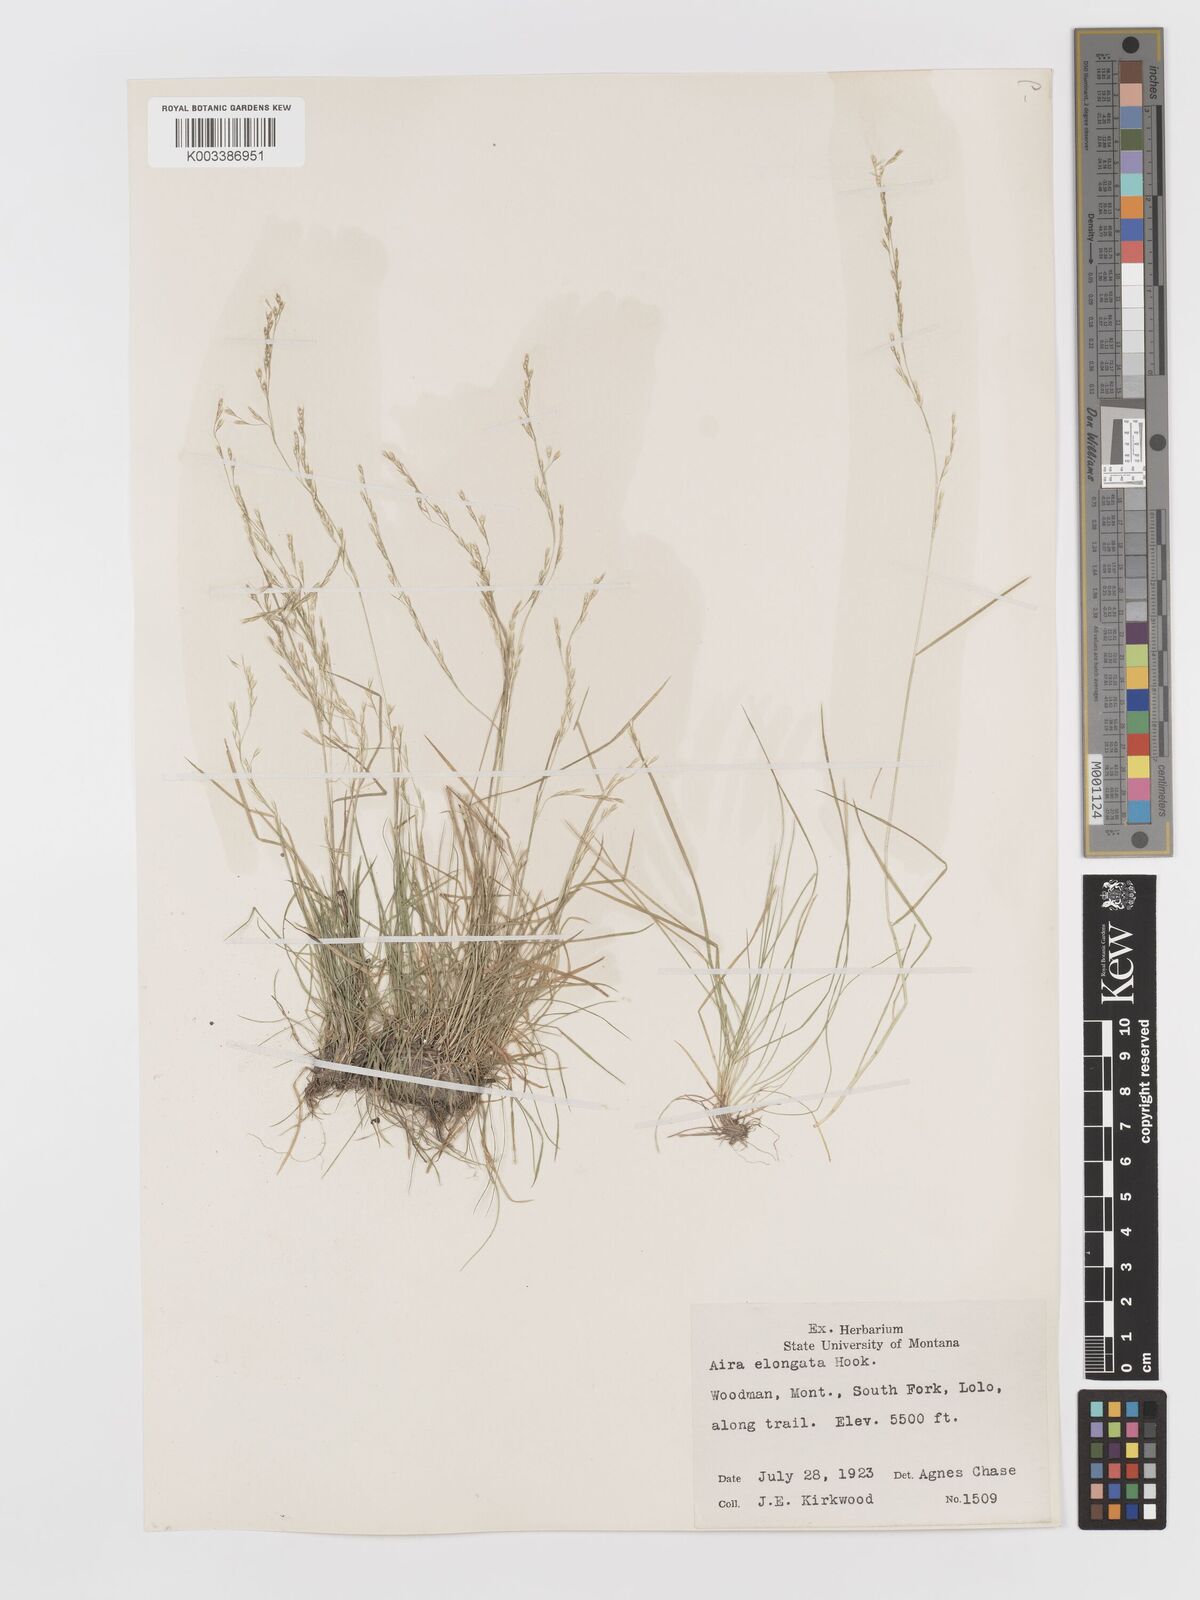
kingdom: Plantae
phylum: Tracheophyta
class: Liliopsida
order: Poales
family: Poaceae
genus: Deschampsia
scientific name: Deschampsia elongata
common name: Slender hairgrass
